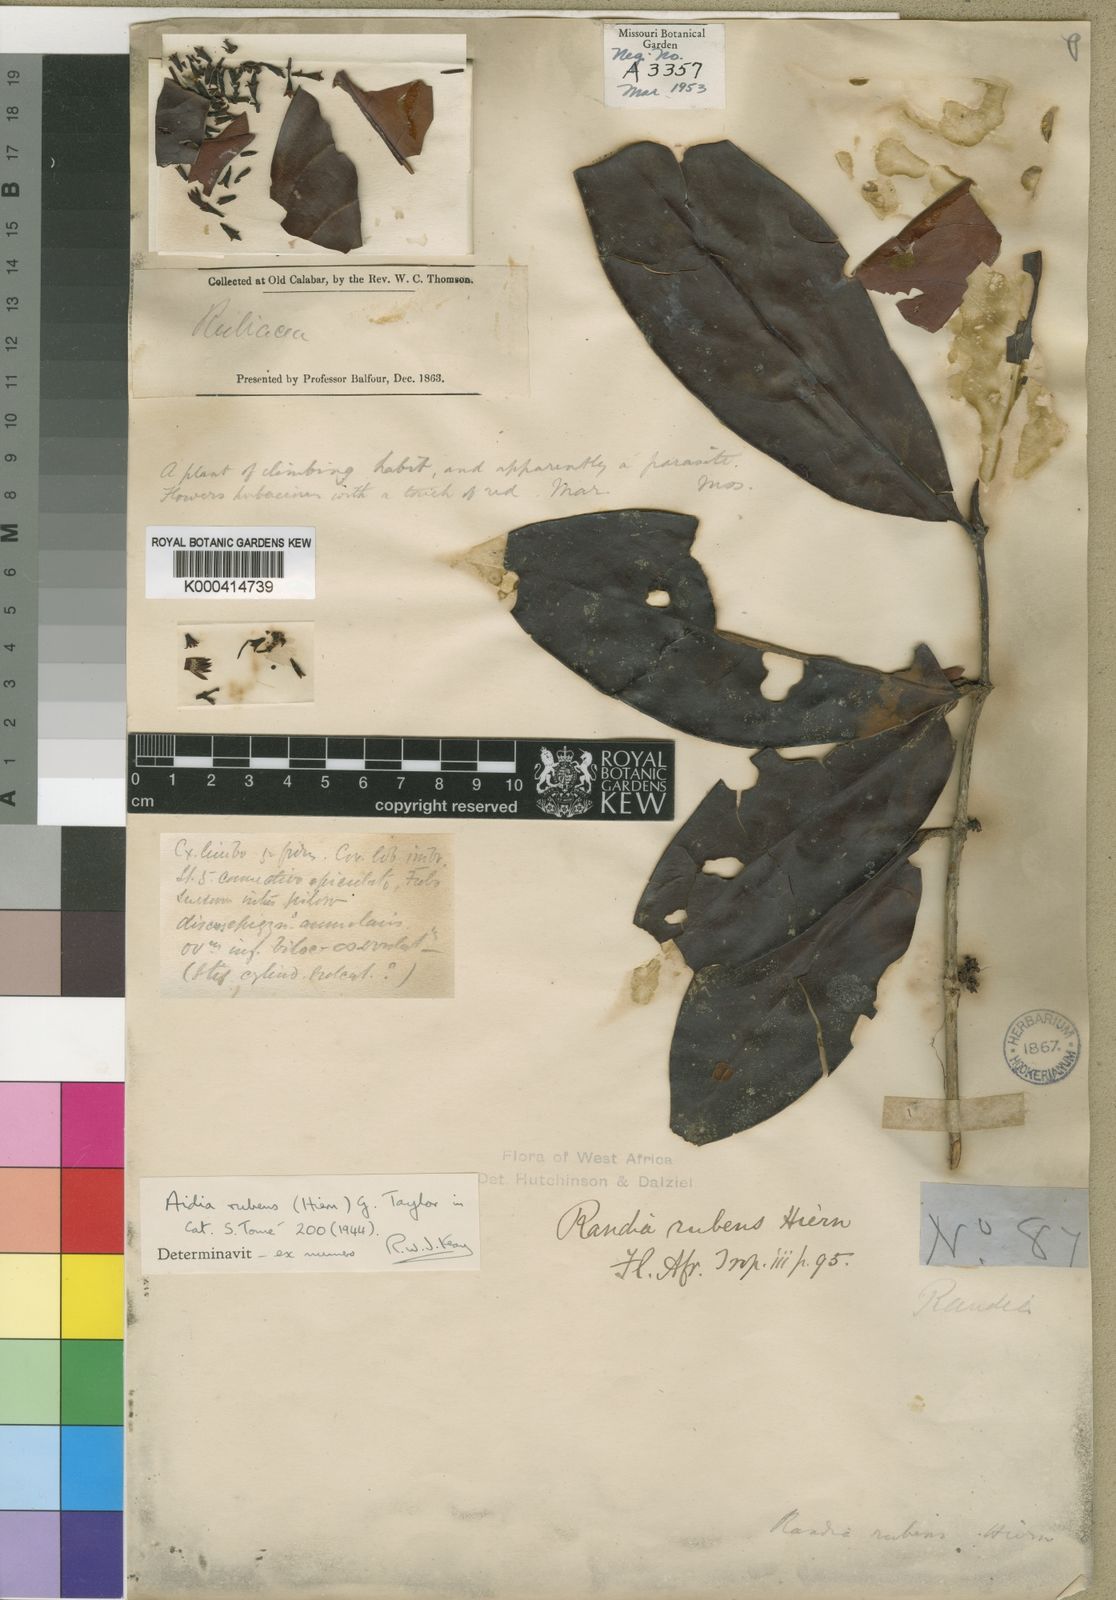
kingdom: Plantae
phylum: Tracheophyta
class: Magnoliopsida
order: Gentianales
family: Rubiaceae
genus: Aidia
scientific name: Aidia rubens
